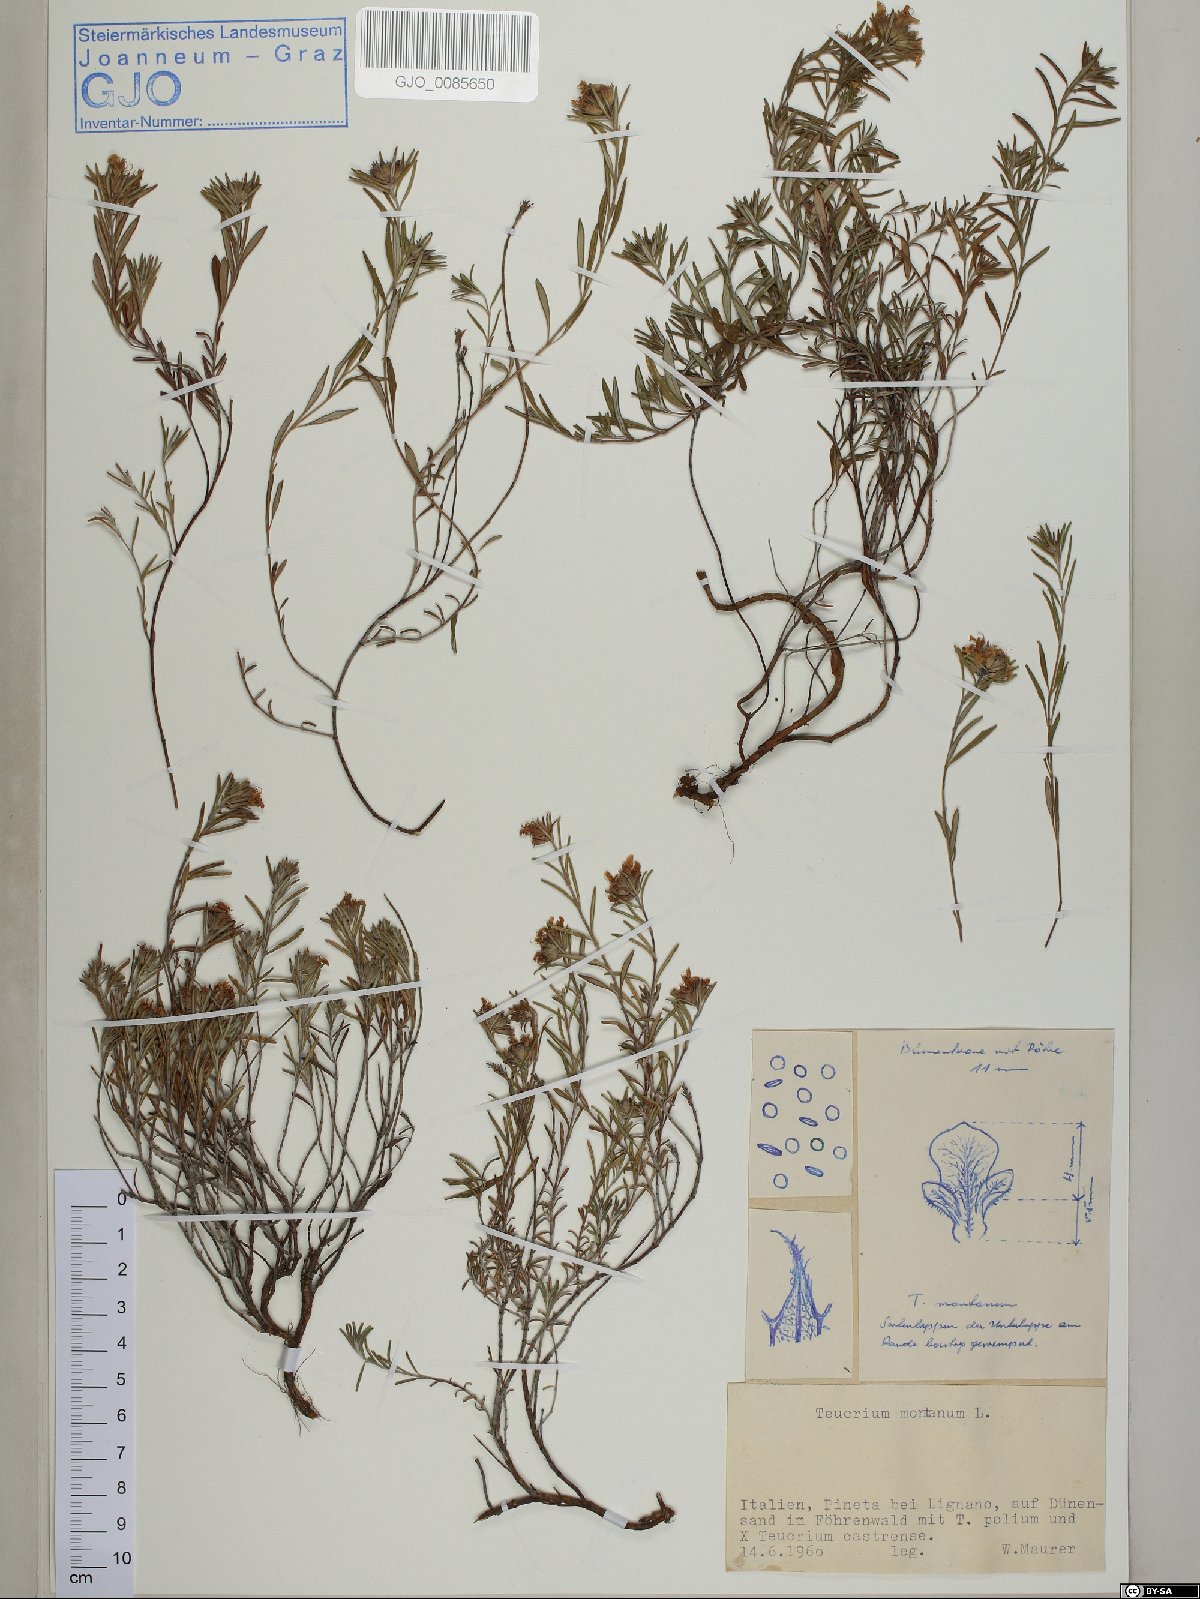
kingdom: Plantae
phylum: Tracheophyta
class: Magnoliopsida
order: Lamiales
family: Lamiaceae
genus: Teucrium
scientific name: Teucrium montanum
